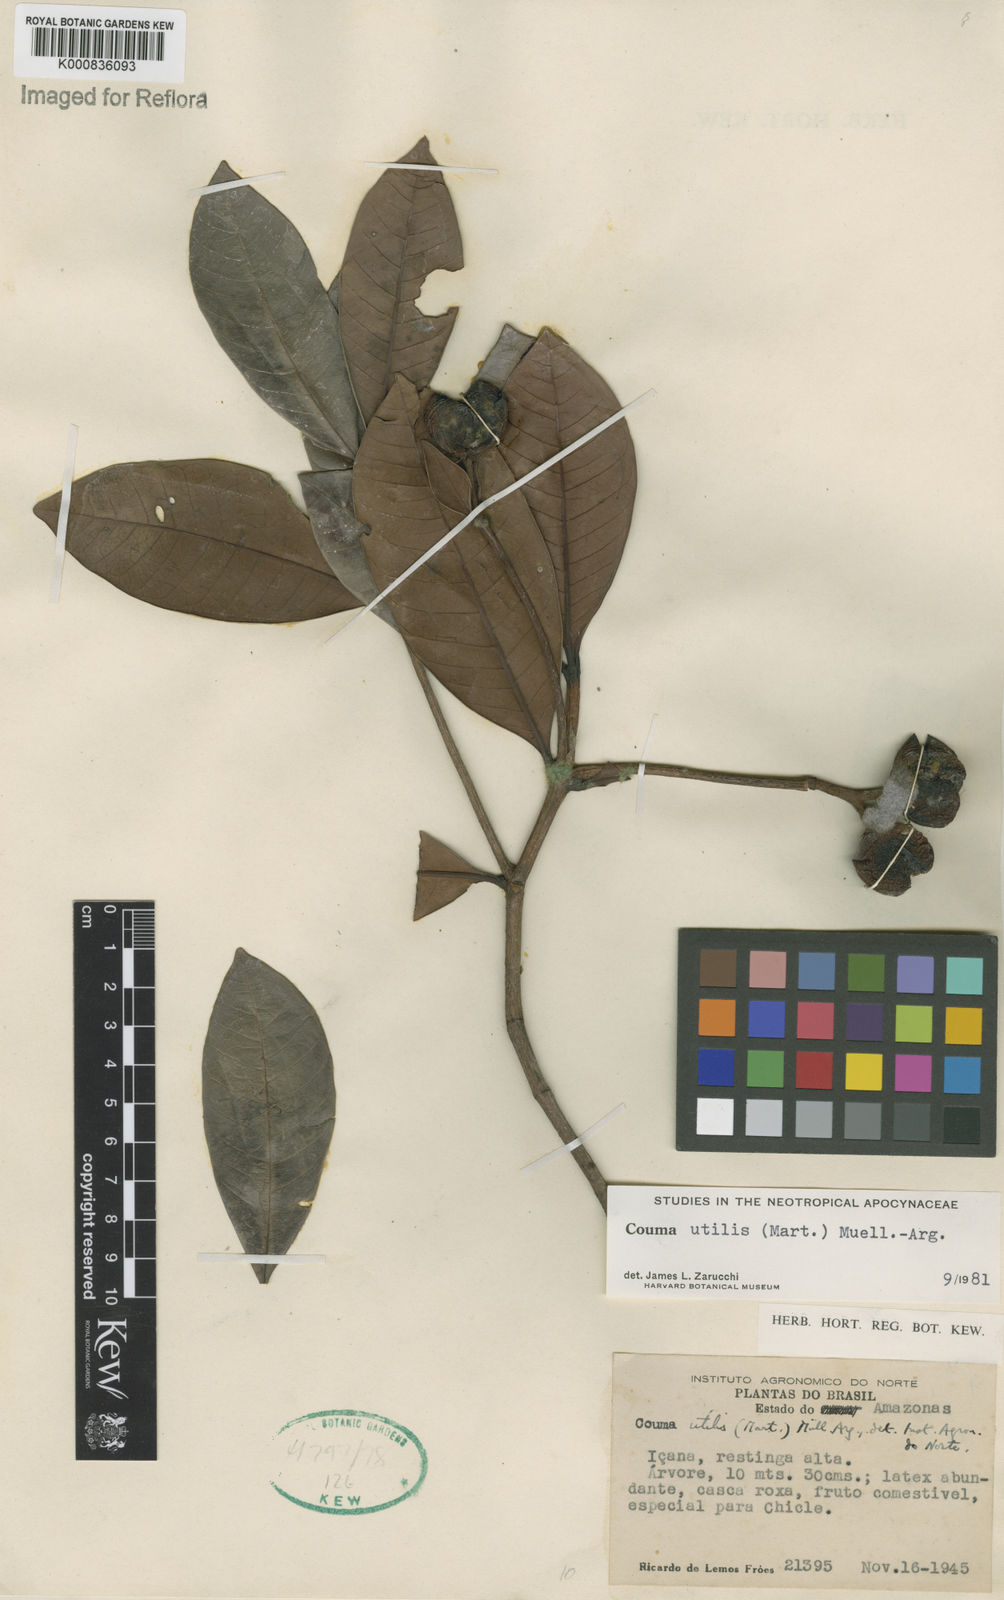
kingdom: Plantae
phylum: Tracheophyta
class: Magnoliopsida
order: Gentianales
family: Apocynaceae
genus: Couma
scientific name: Couma
